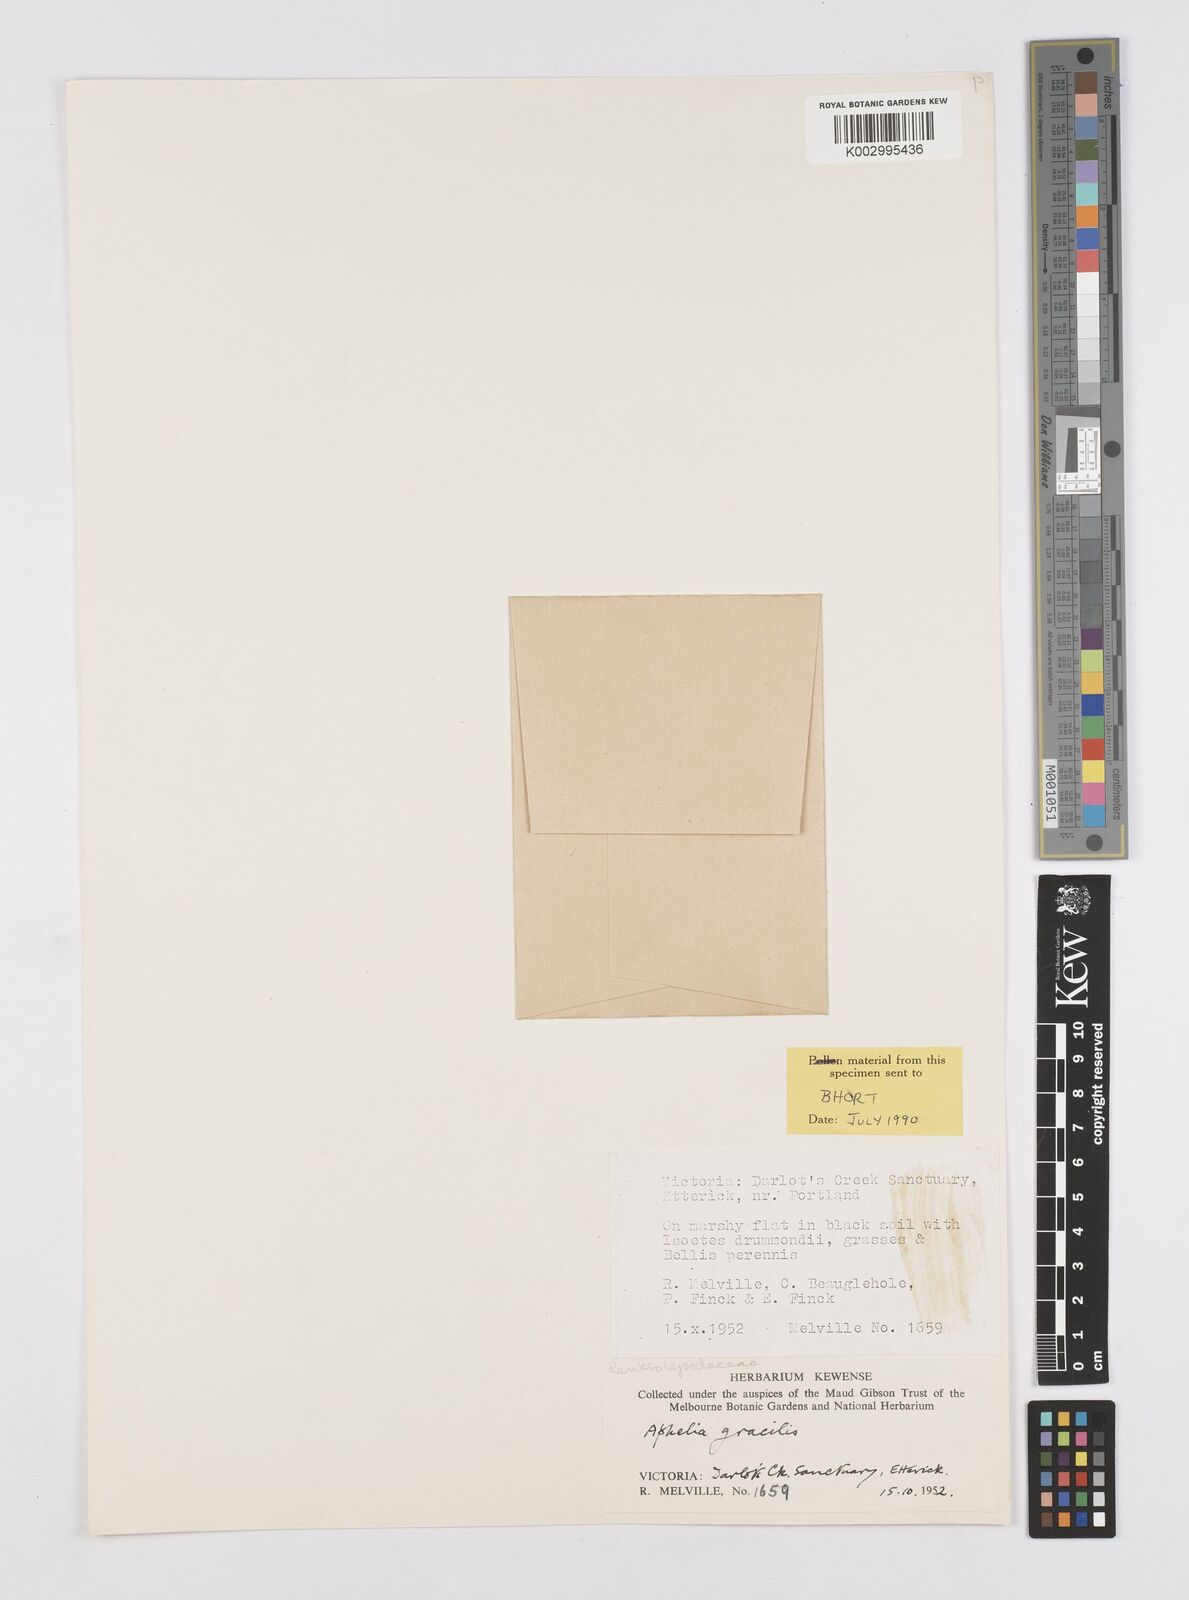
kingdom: Plantae
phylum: Tracheophyta
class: Liliopsida
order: Poales
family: Restionaceae
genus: Aphelia
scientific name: Aphelia gracilis
